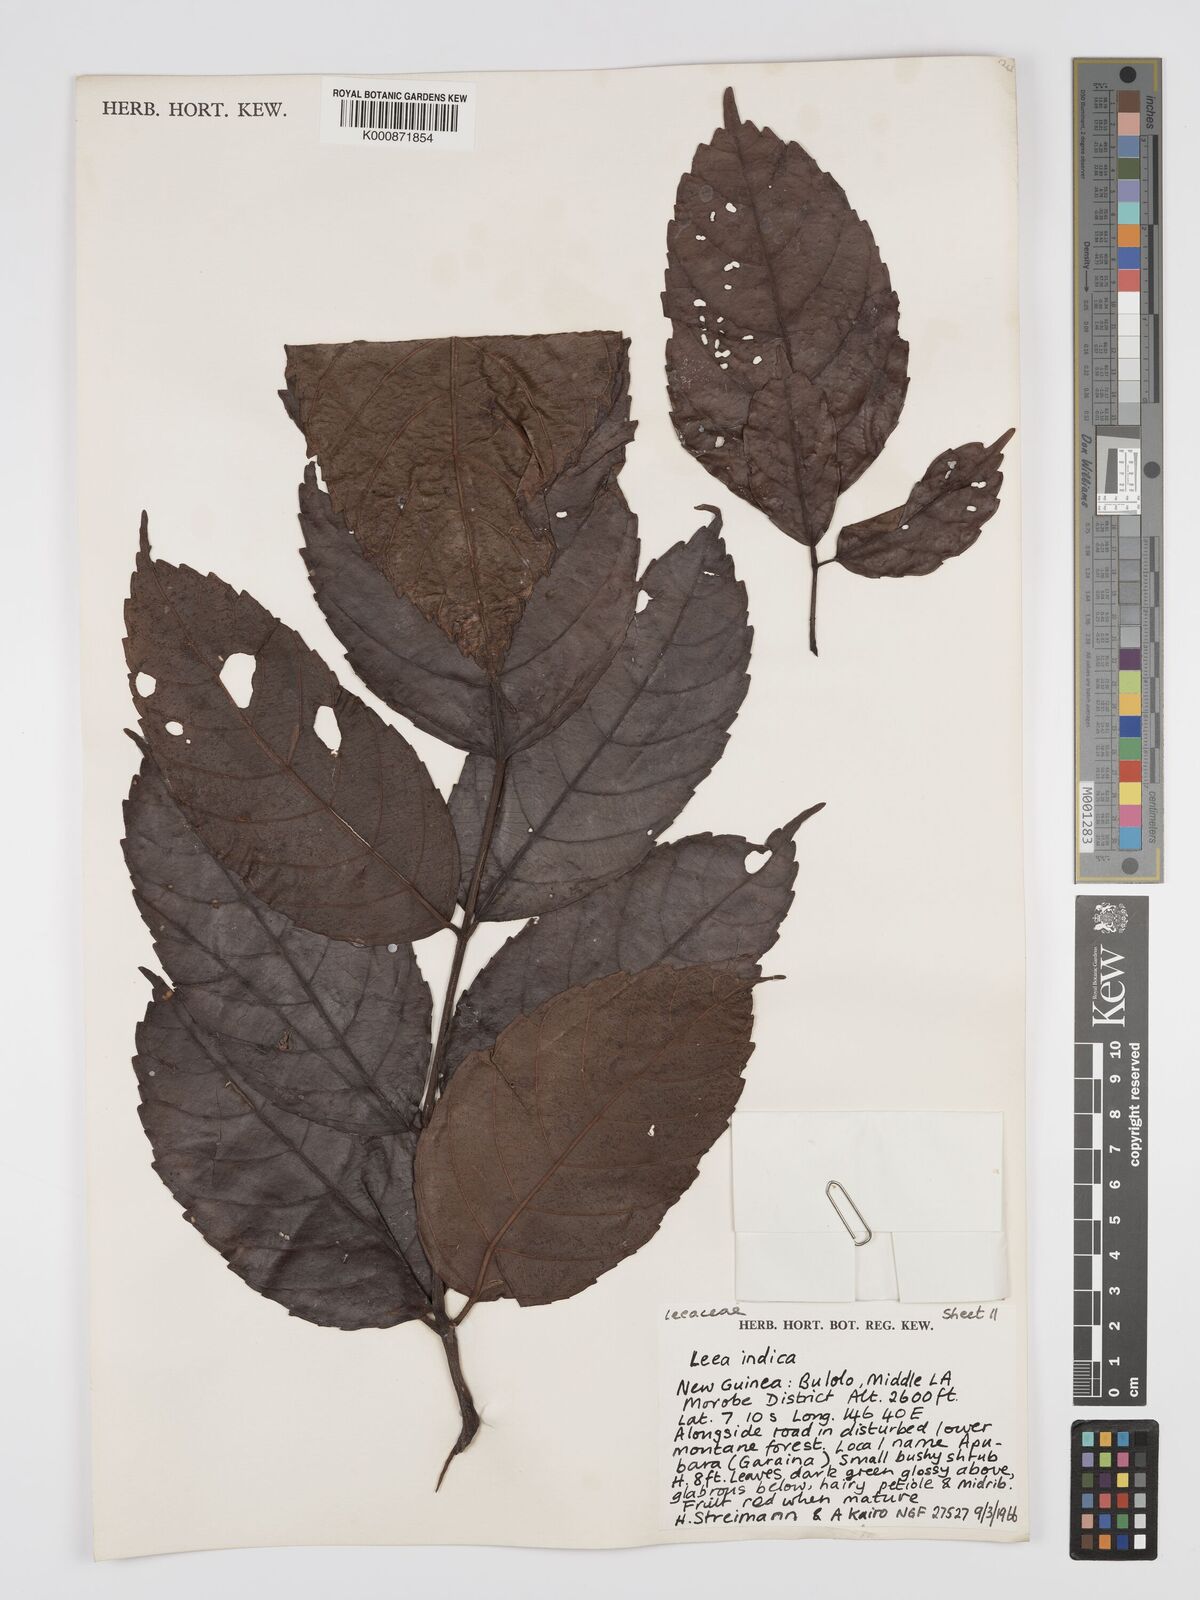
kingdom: Plantae
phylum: Tracheophyta
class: Magnoliopsida
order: Vitales
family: Vitaceae
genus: Leea
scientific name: Leea indica
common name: Bandicoot-berry
